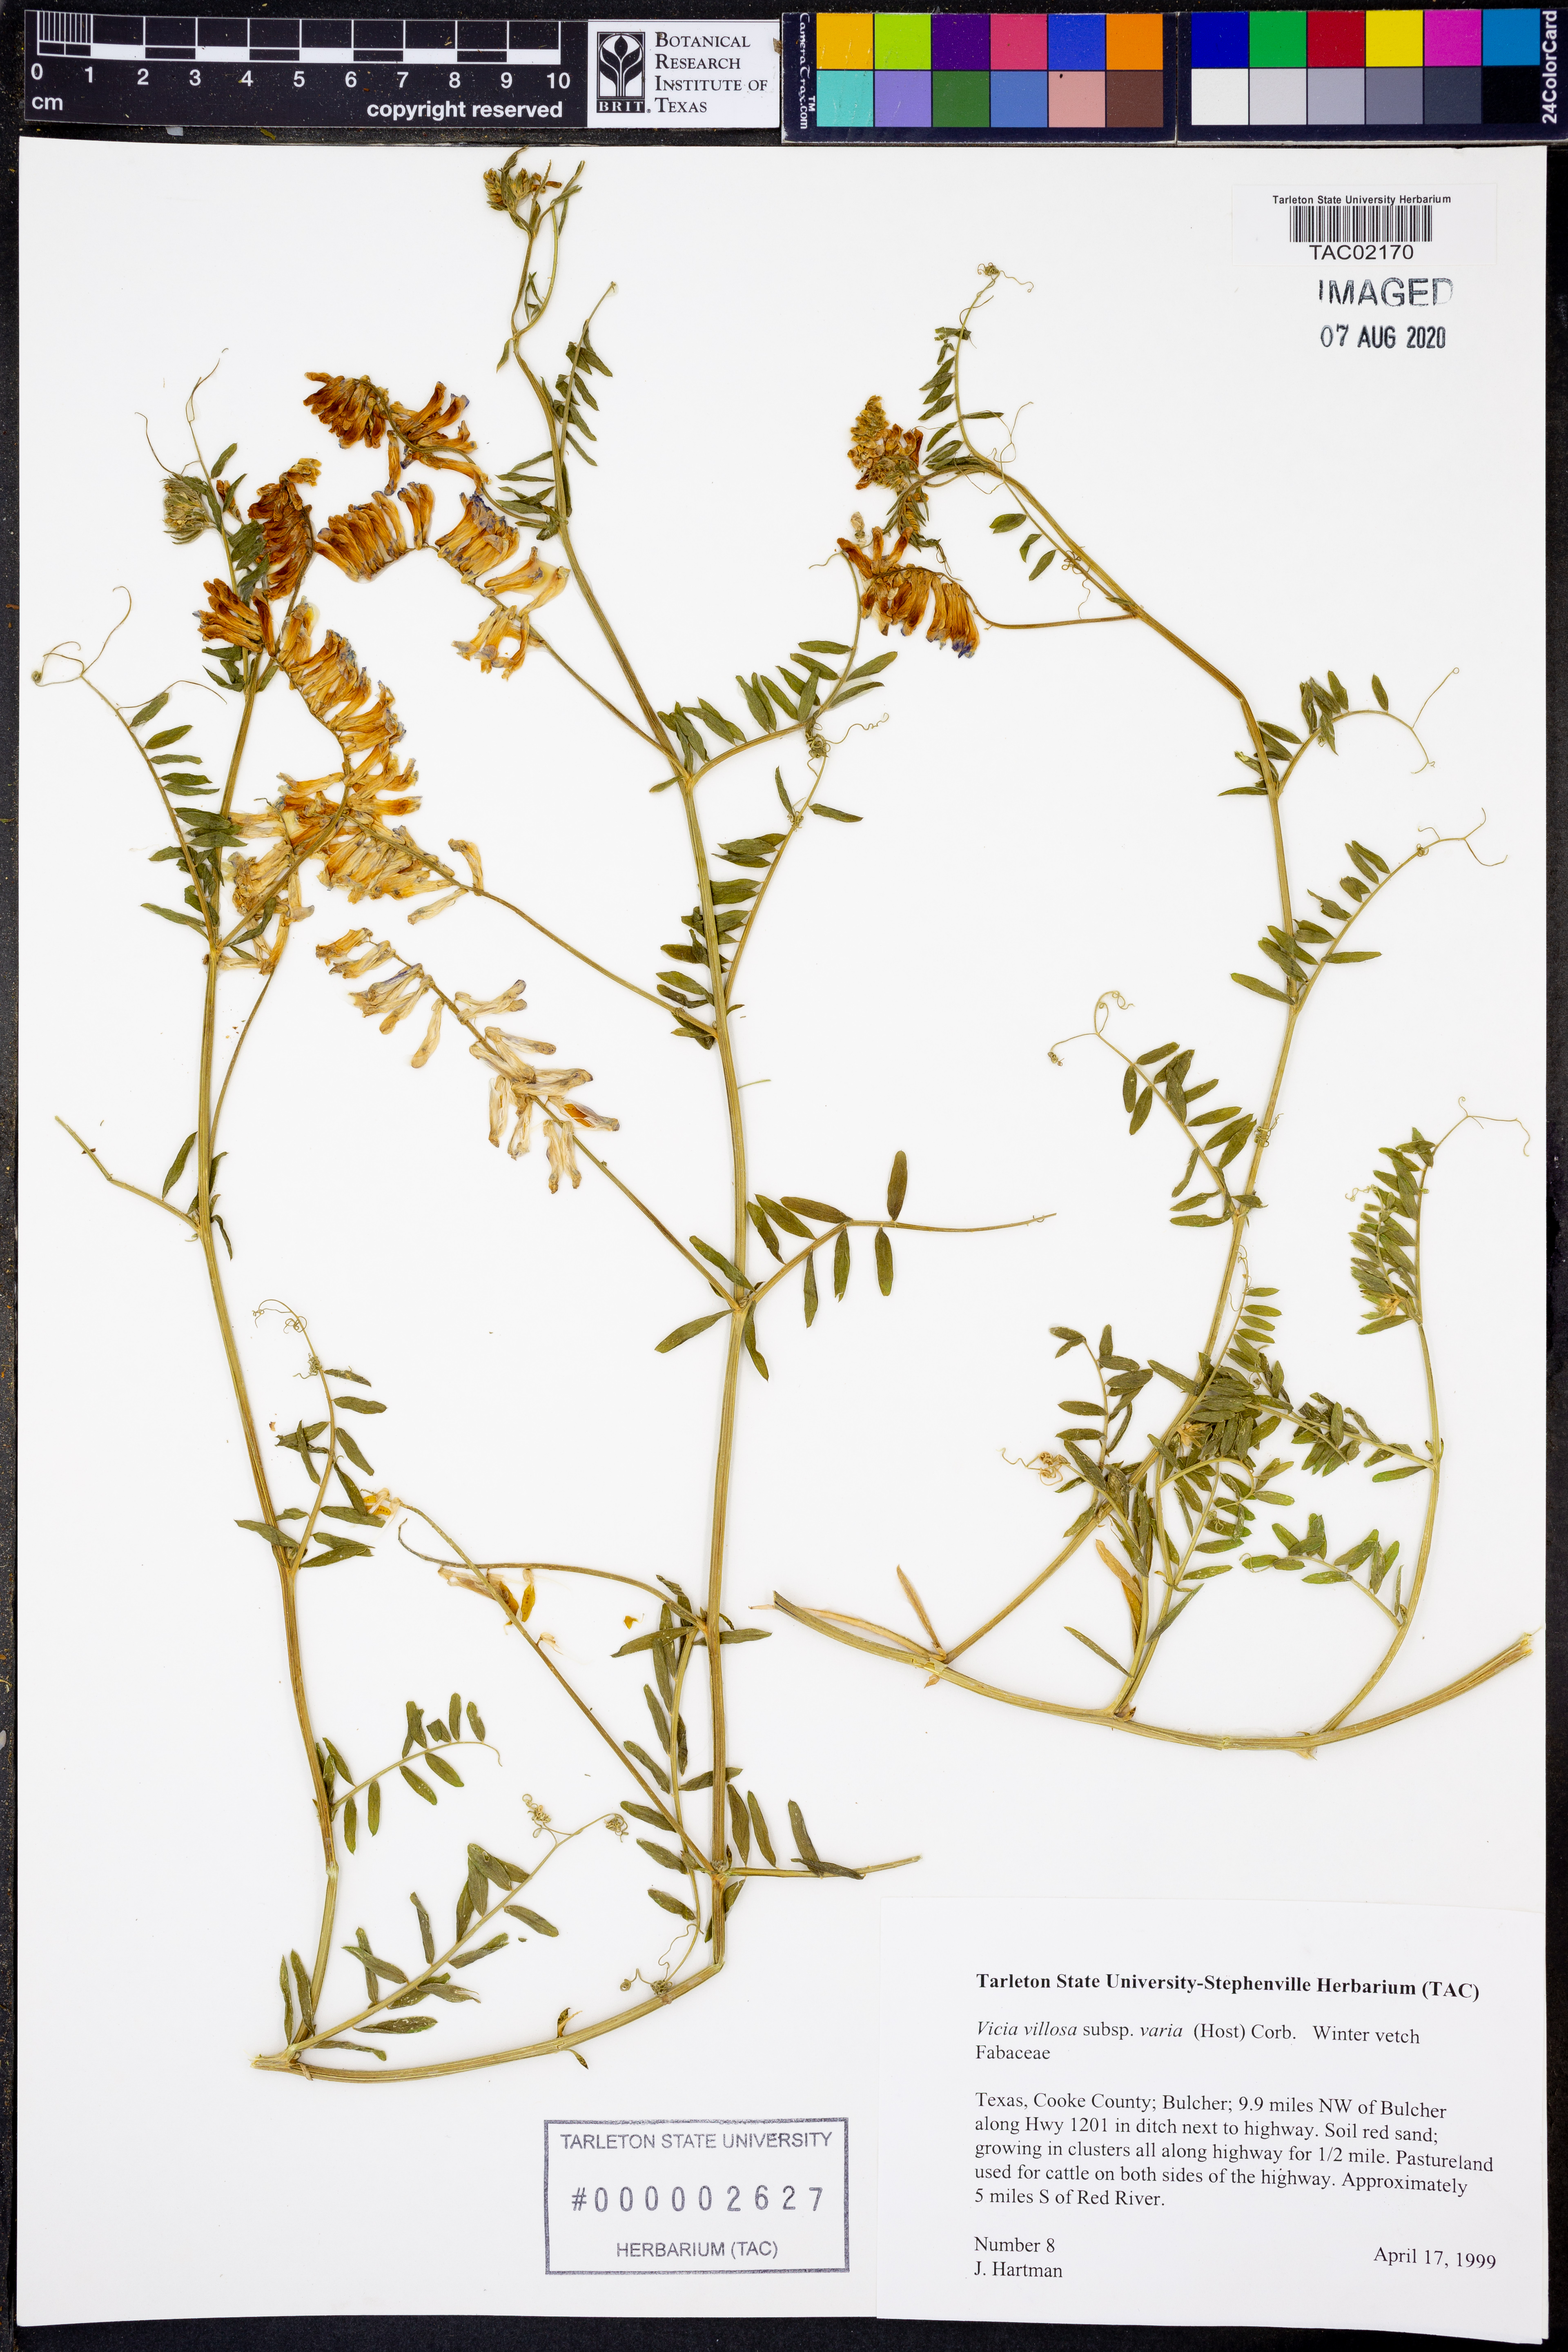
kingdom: Plantae
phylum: Tracheophyta
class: Magnoliopsida
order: Fabales
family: Fabaceae
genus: Vicia
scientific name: Vicia villosa
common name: Fodder vetch
